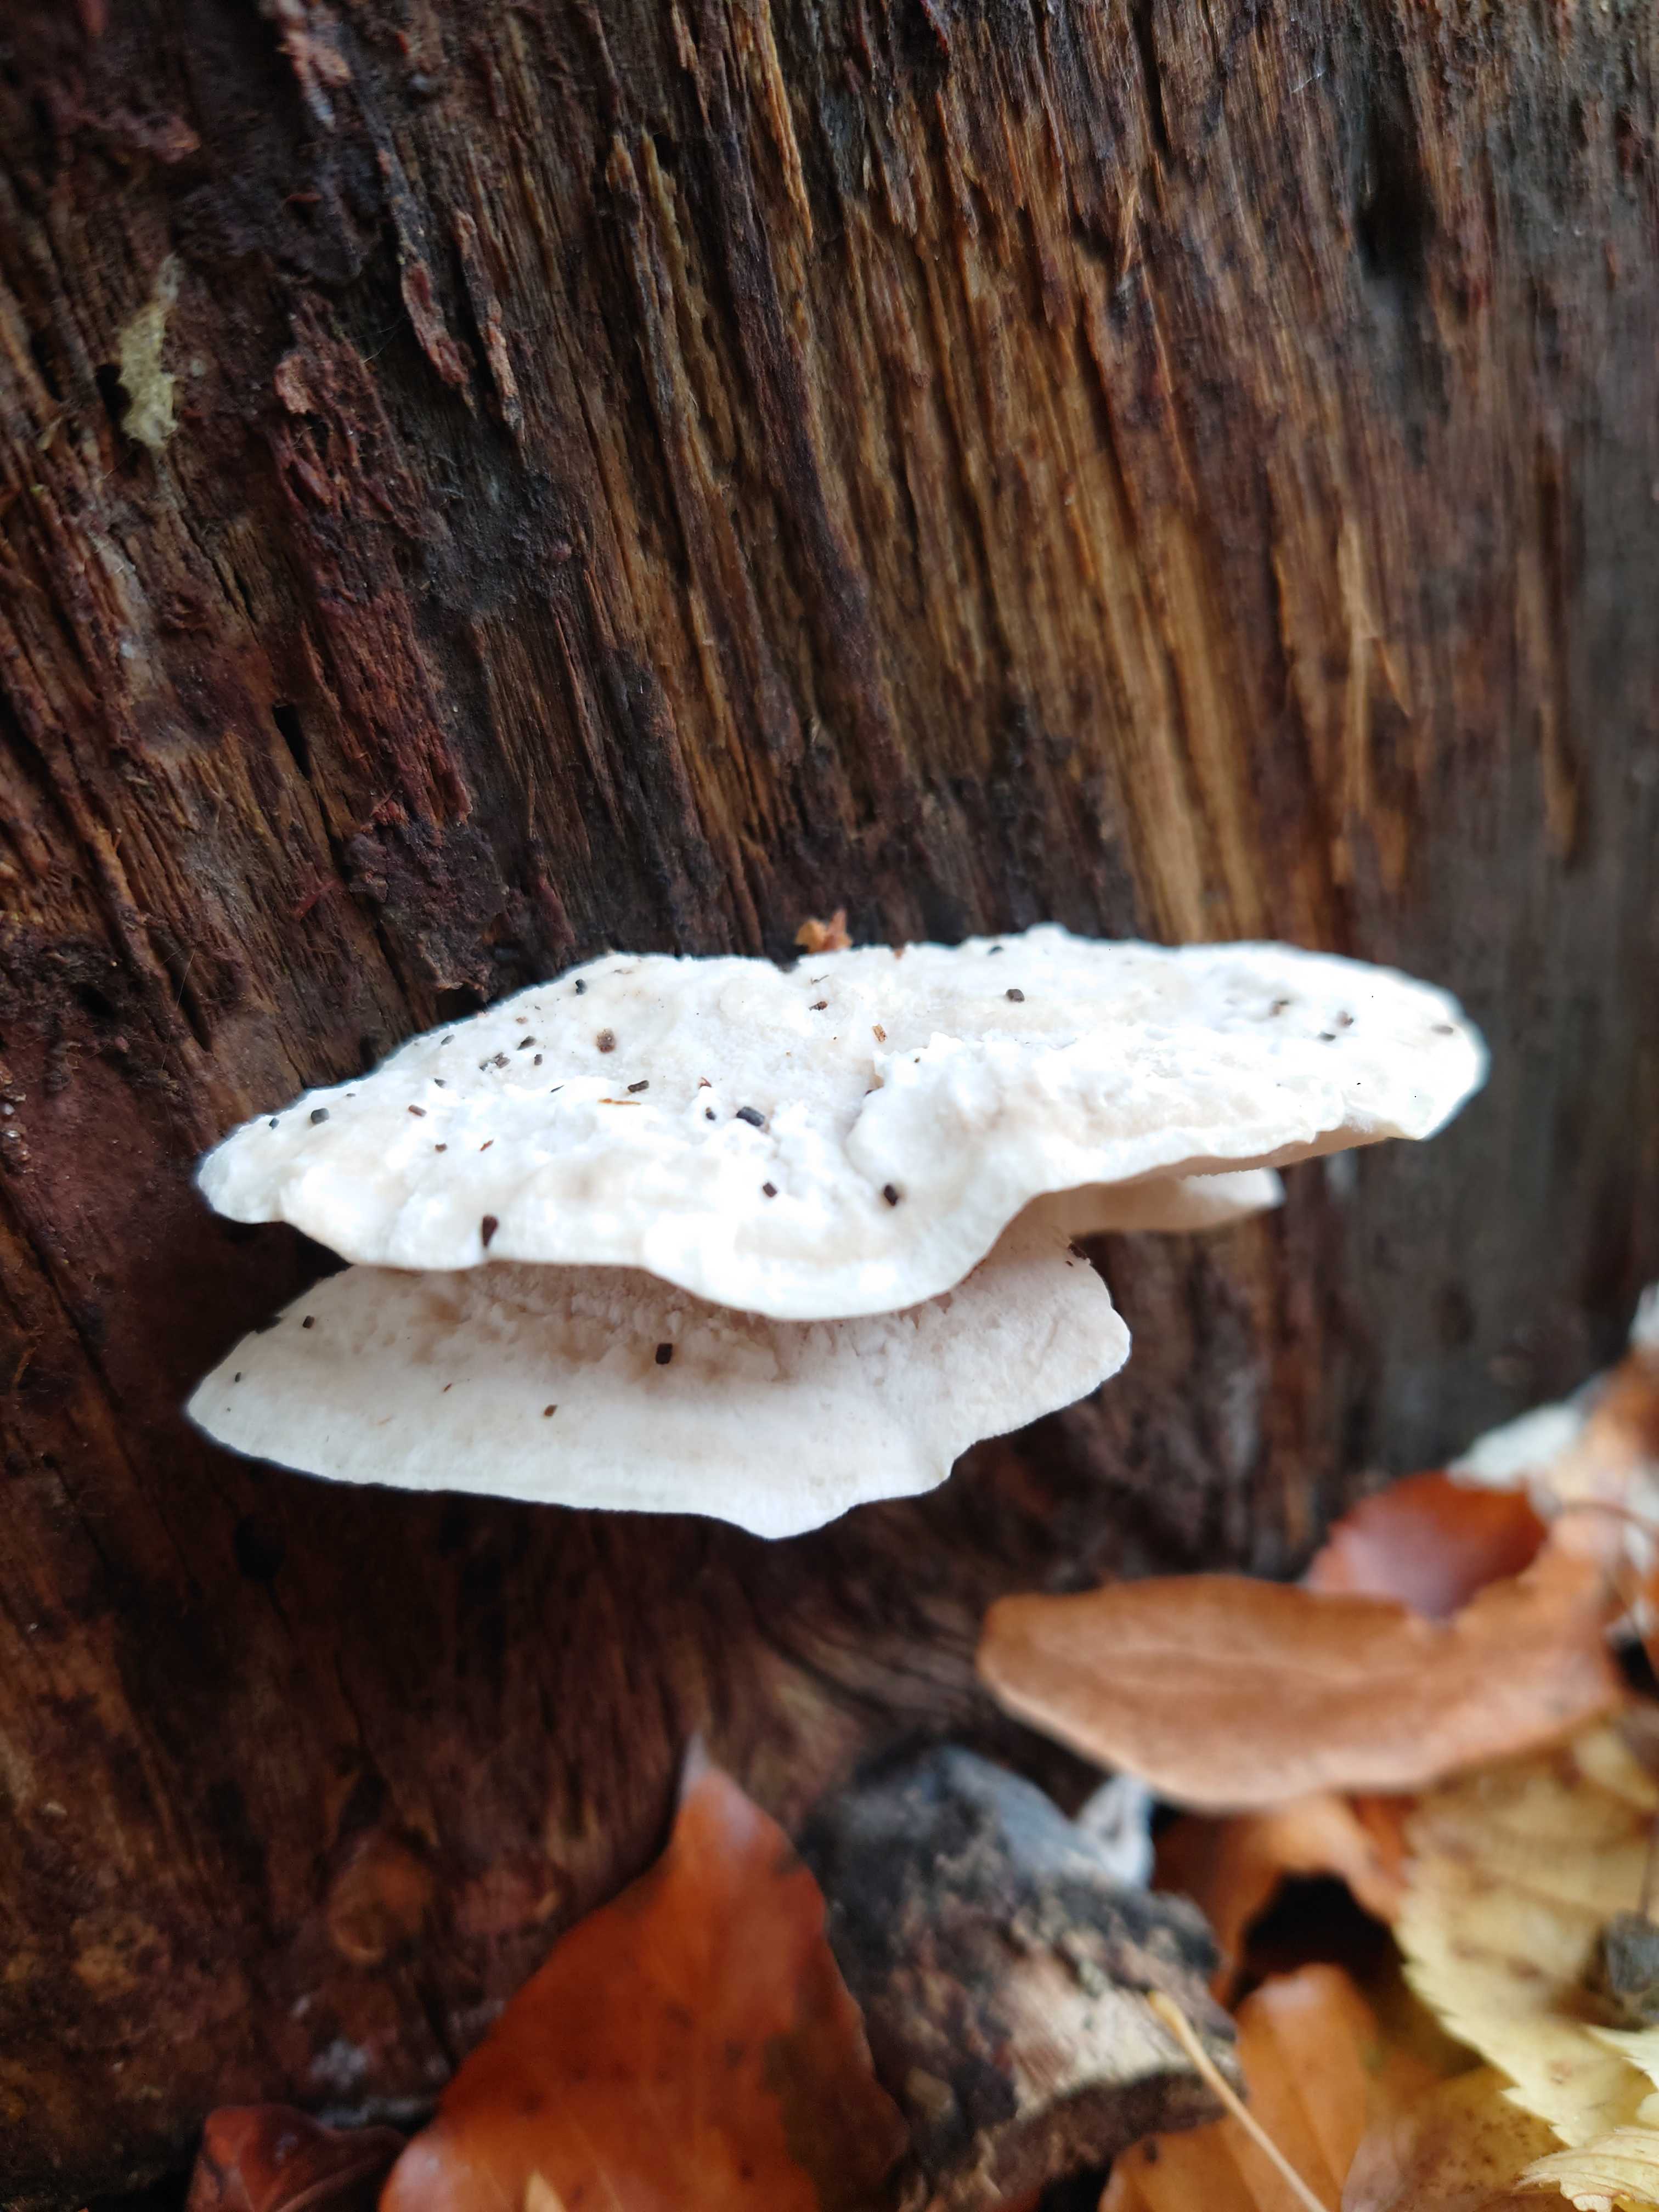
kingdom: Fungi
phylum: Basidiomycota
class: Agaricomycetes
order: Polyporales
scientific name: Polyporales
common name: poresvampordenen
